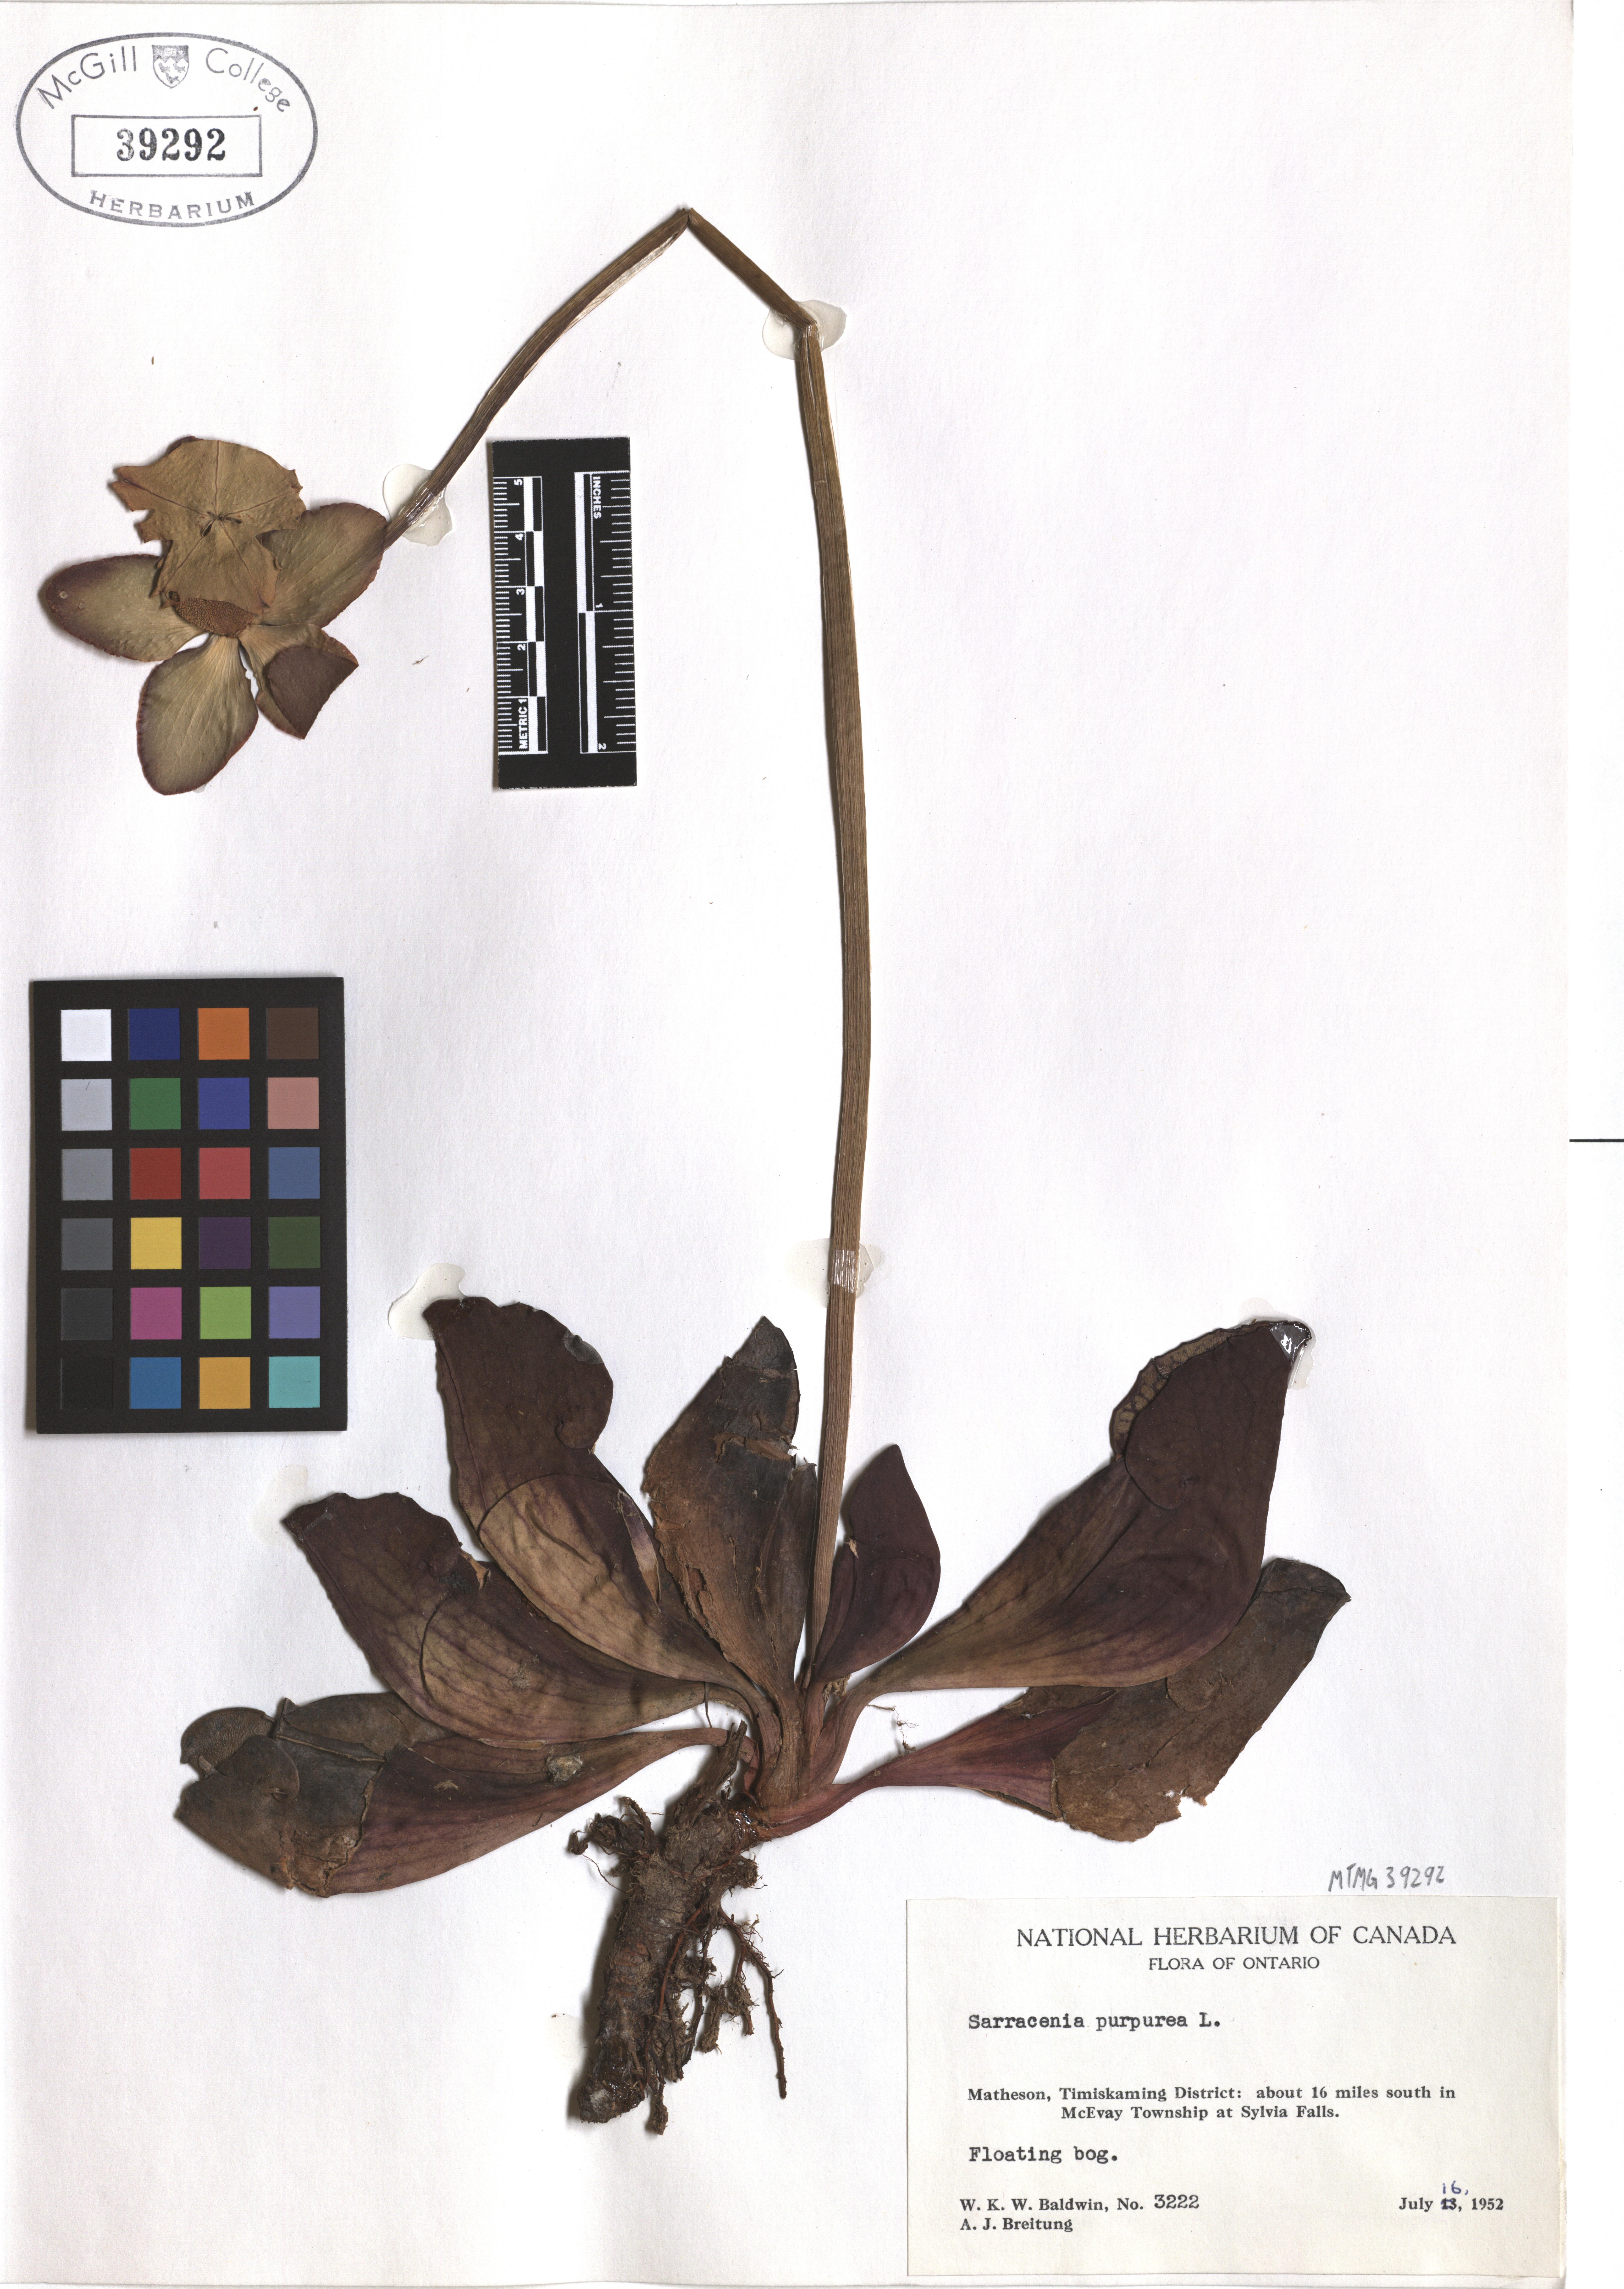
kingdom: Plantae
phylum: Tracheophyta
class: Magnoliopsida
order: Ericales
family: Sarraceniaceae
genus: Sarracenia
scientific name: Sarracenia purpurea
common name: Pitcherplant
